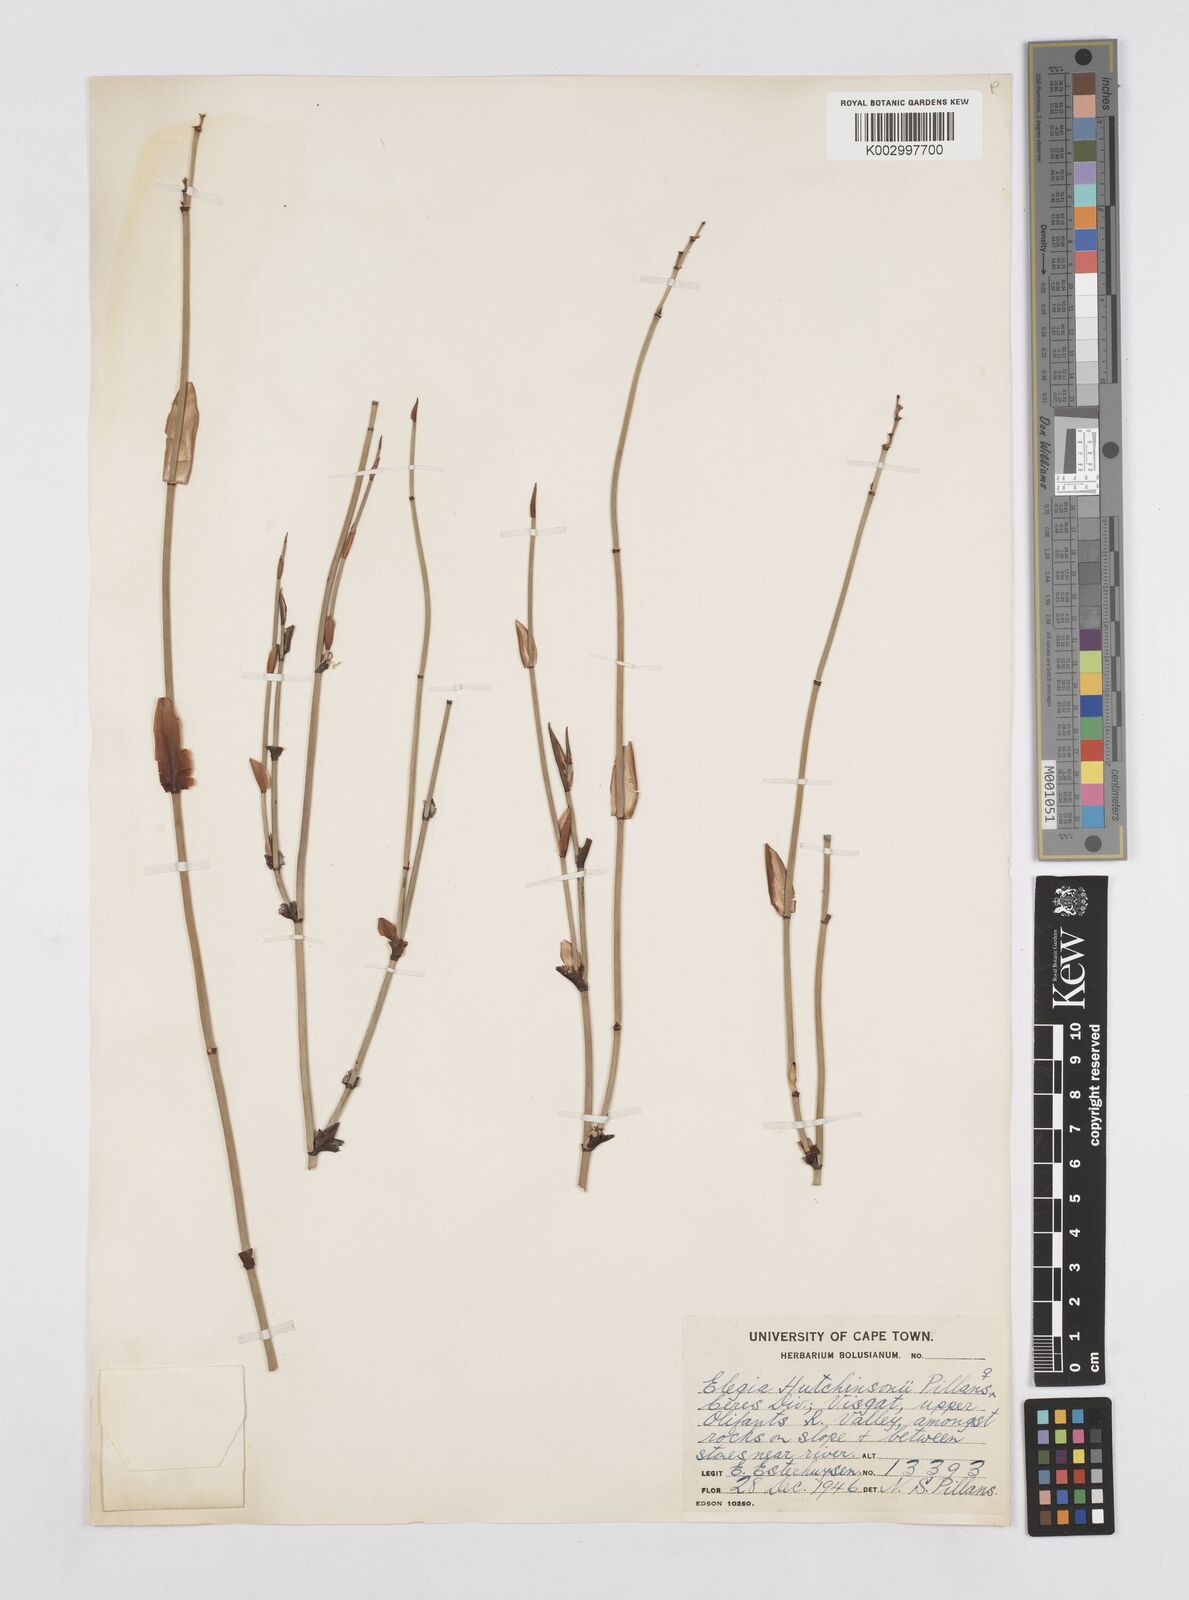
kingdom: Plantae
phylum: Tracheophyta
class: Liliopsida
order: Poales
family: Restionaceae
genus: Elegia
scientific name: Elegia hutchinsonii
